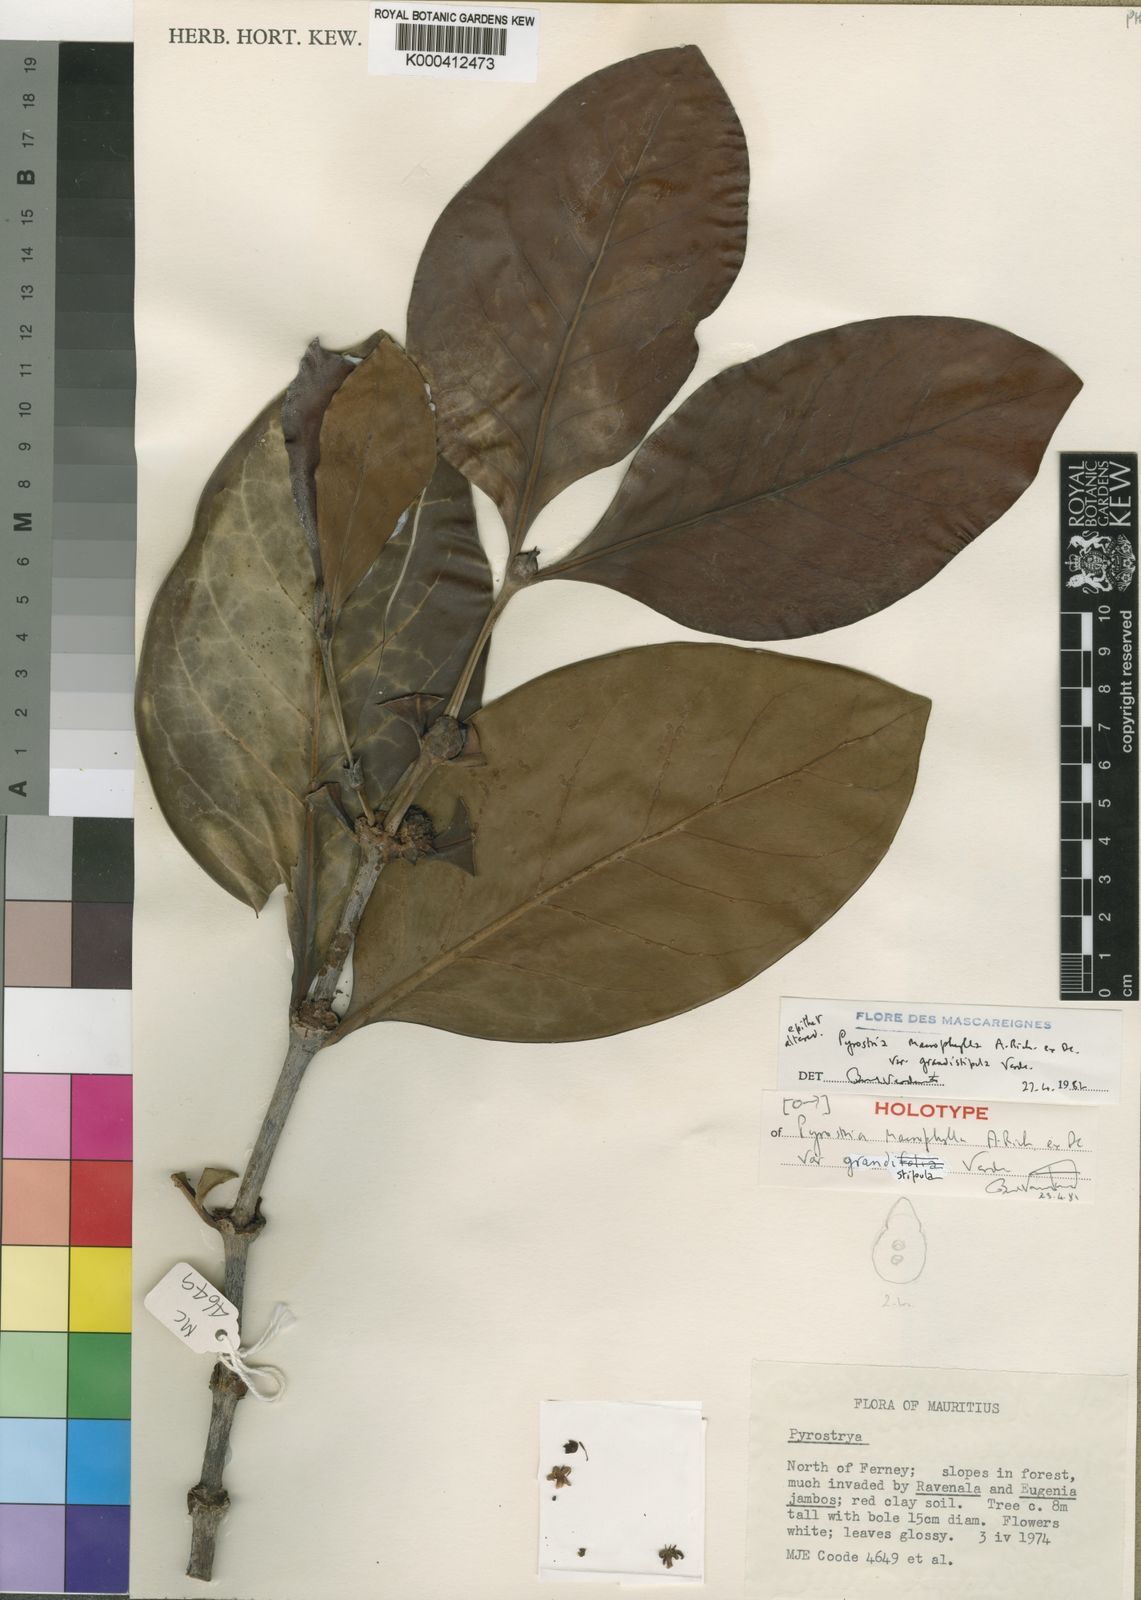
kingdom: Plantae
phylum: Tracheophyta
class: Magnoliopsida
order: Gentianales
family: Rubiaceae
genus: Pyrostria
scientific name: Pyrostria macrophylla
